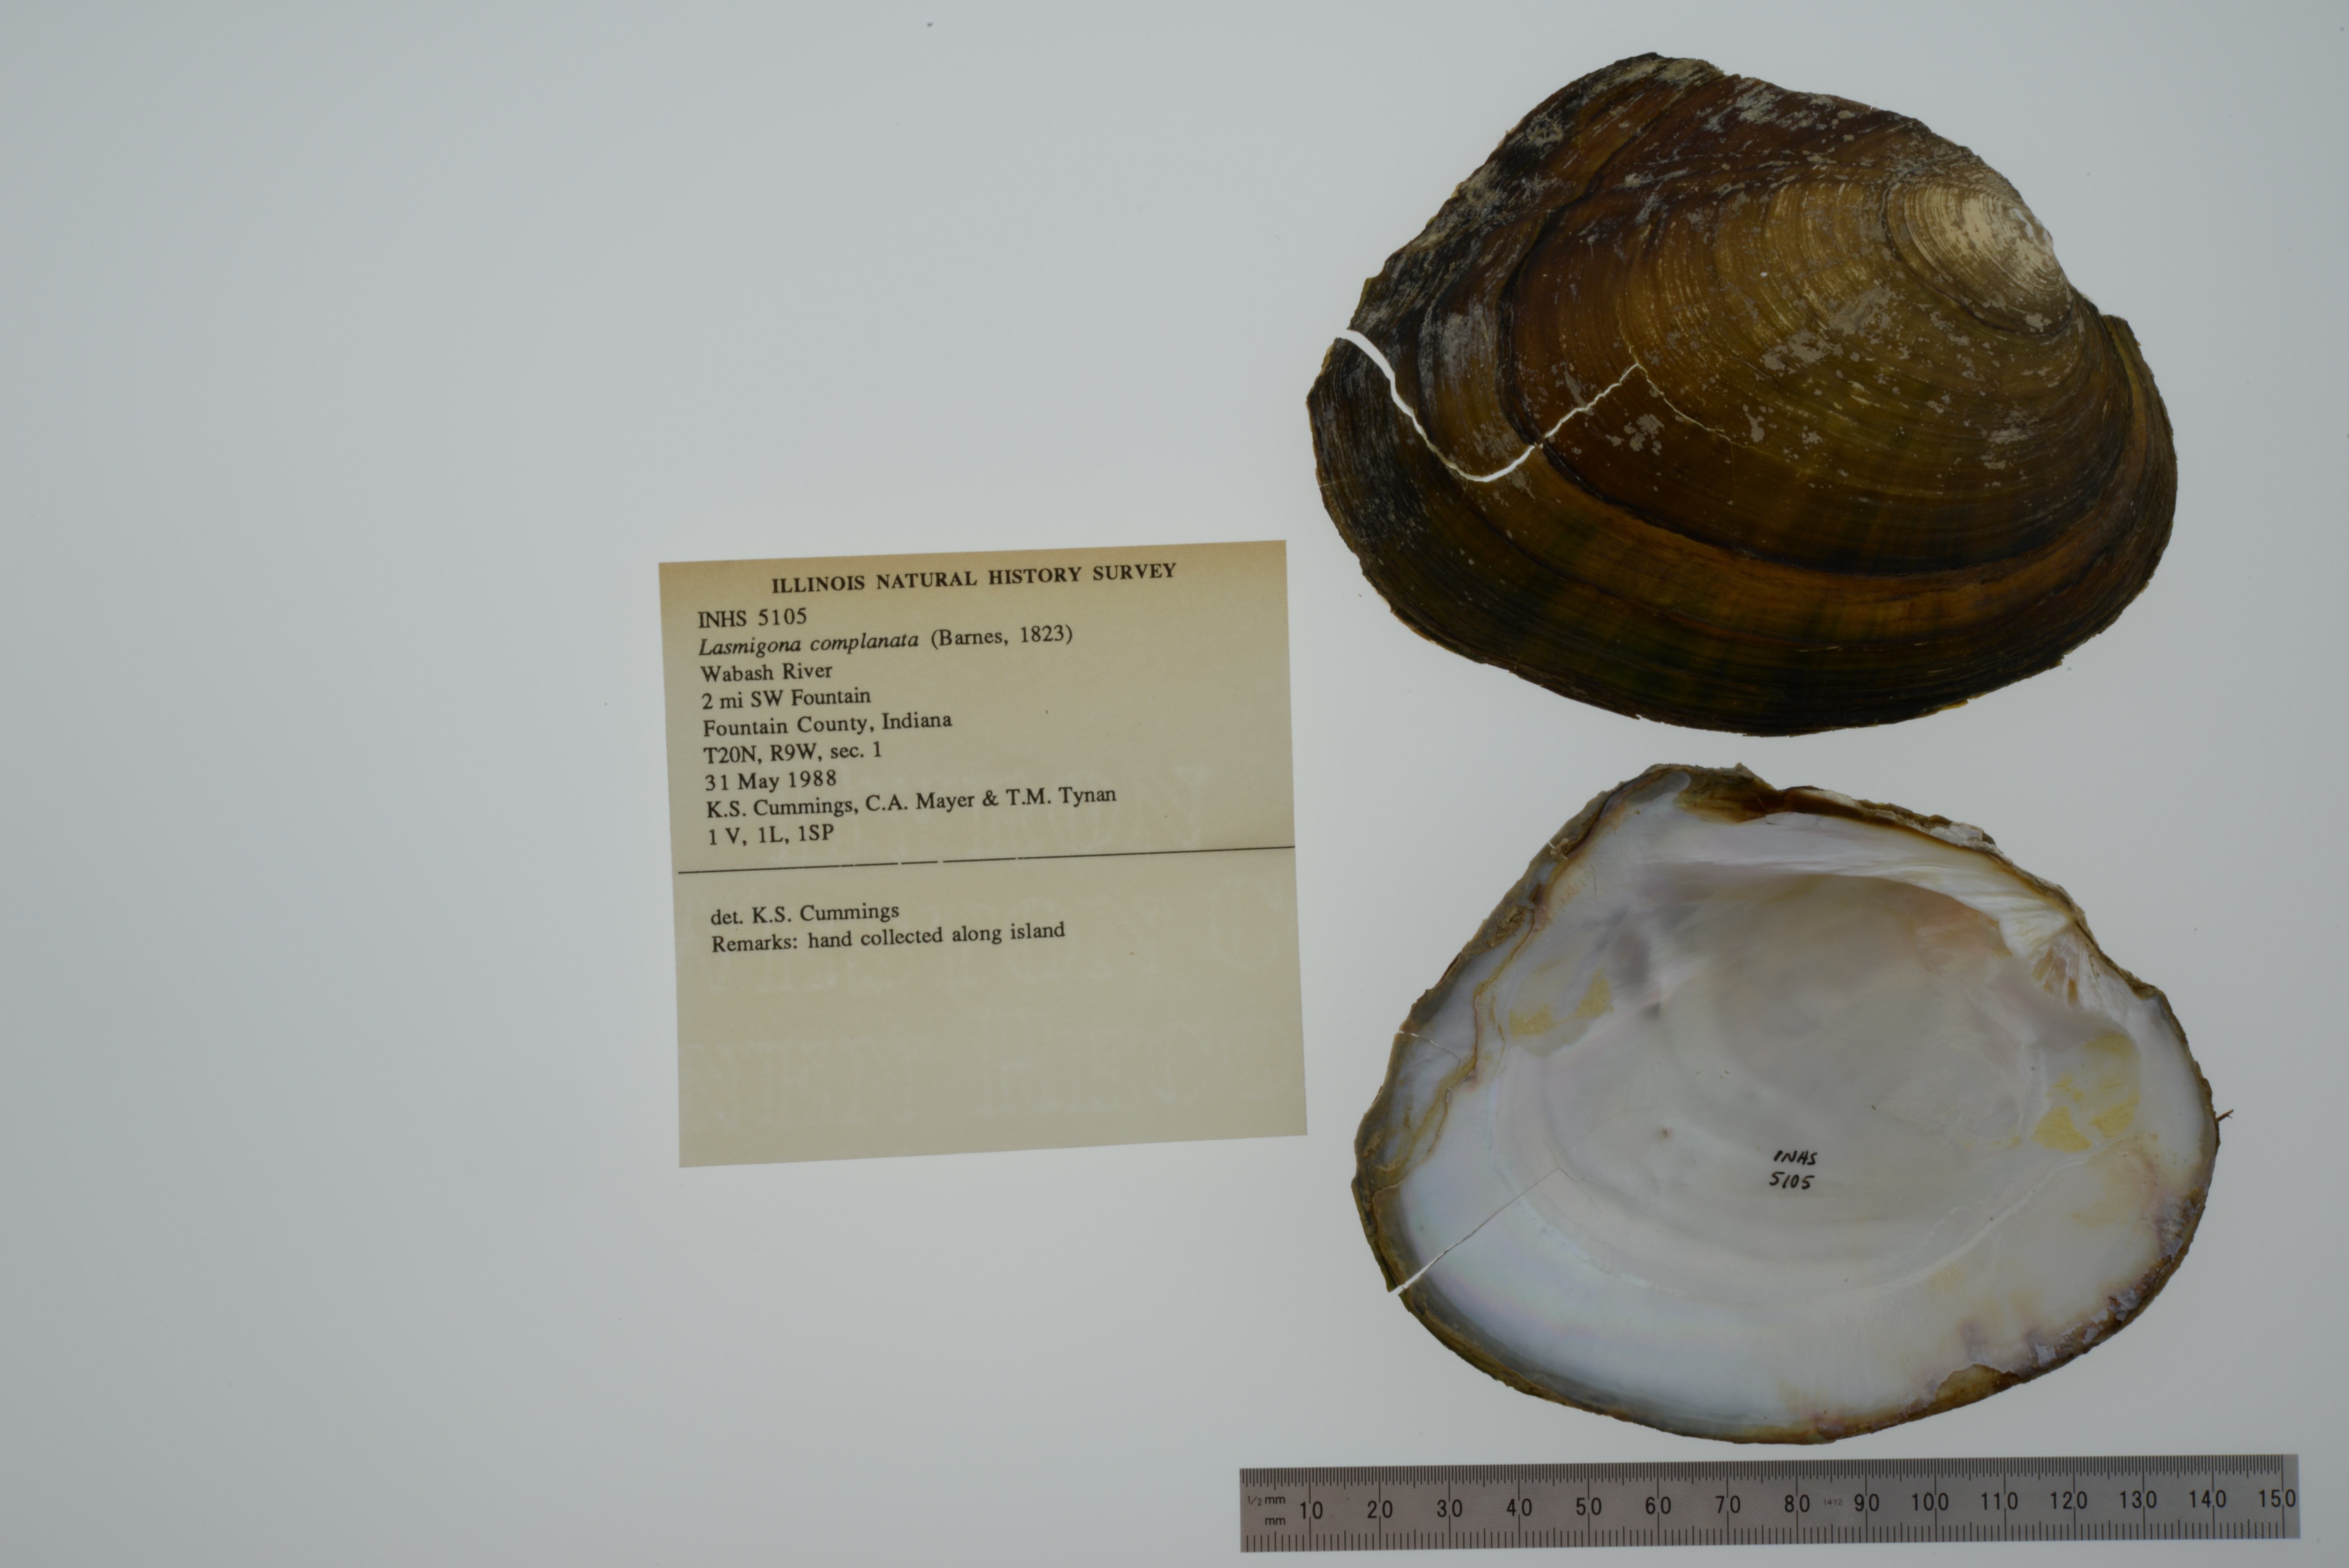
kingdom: Animalia
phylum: Mollusca
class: Bivalvia
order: Unionida
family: Unionidae
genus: Lasmigona
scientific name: Lasmigona complanata
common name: White heelsplitter
